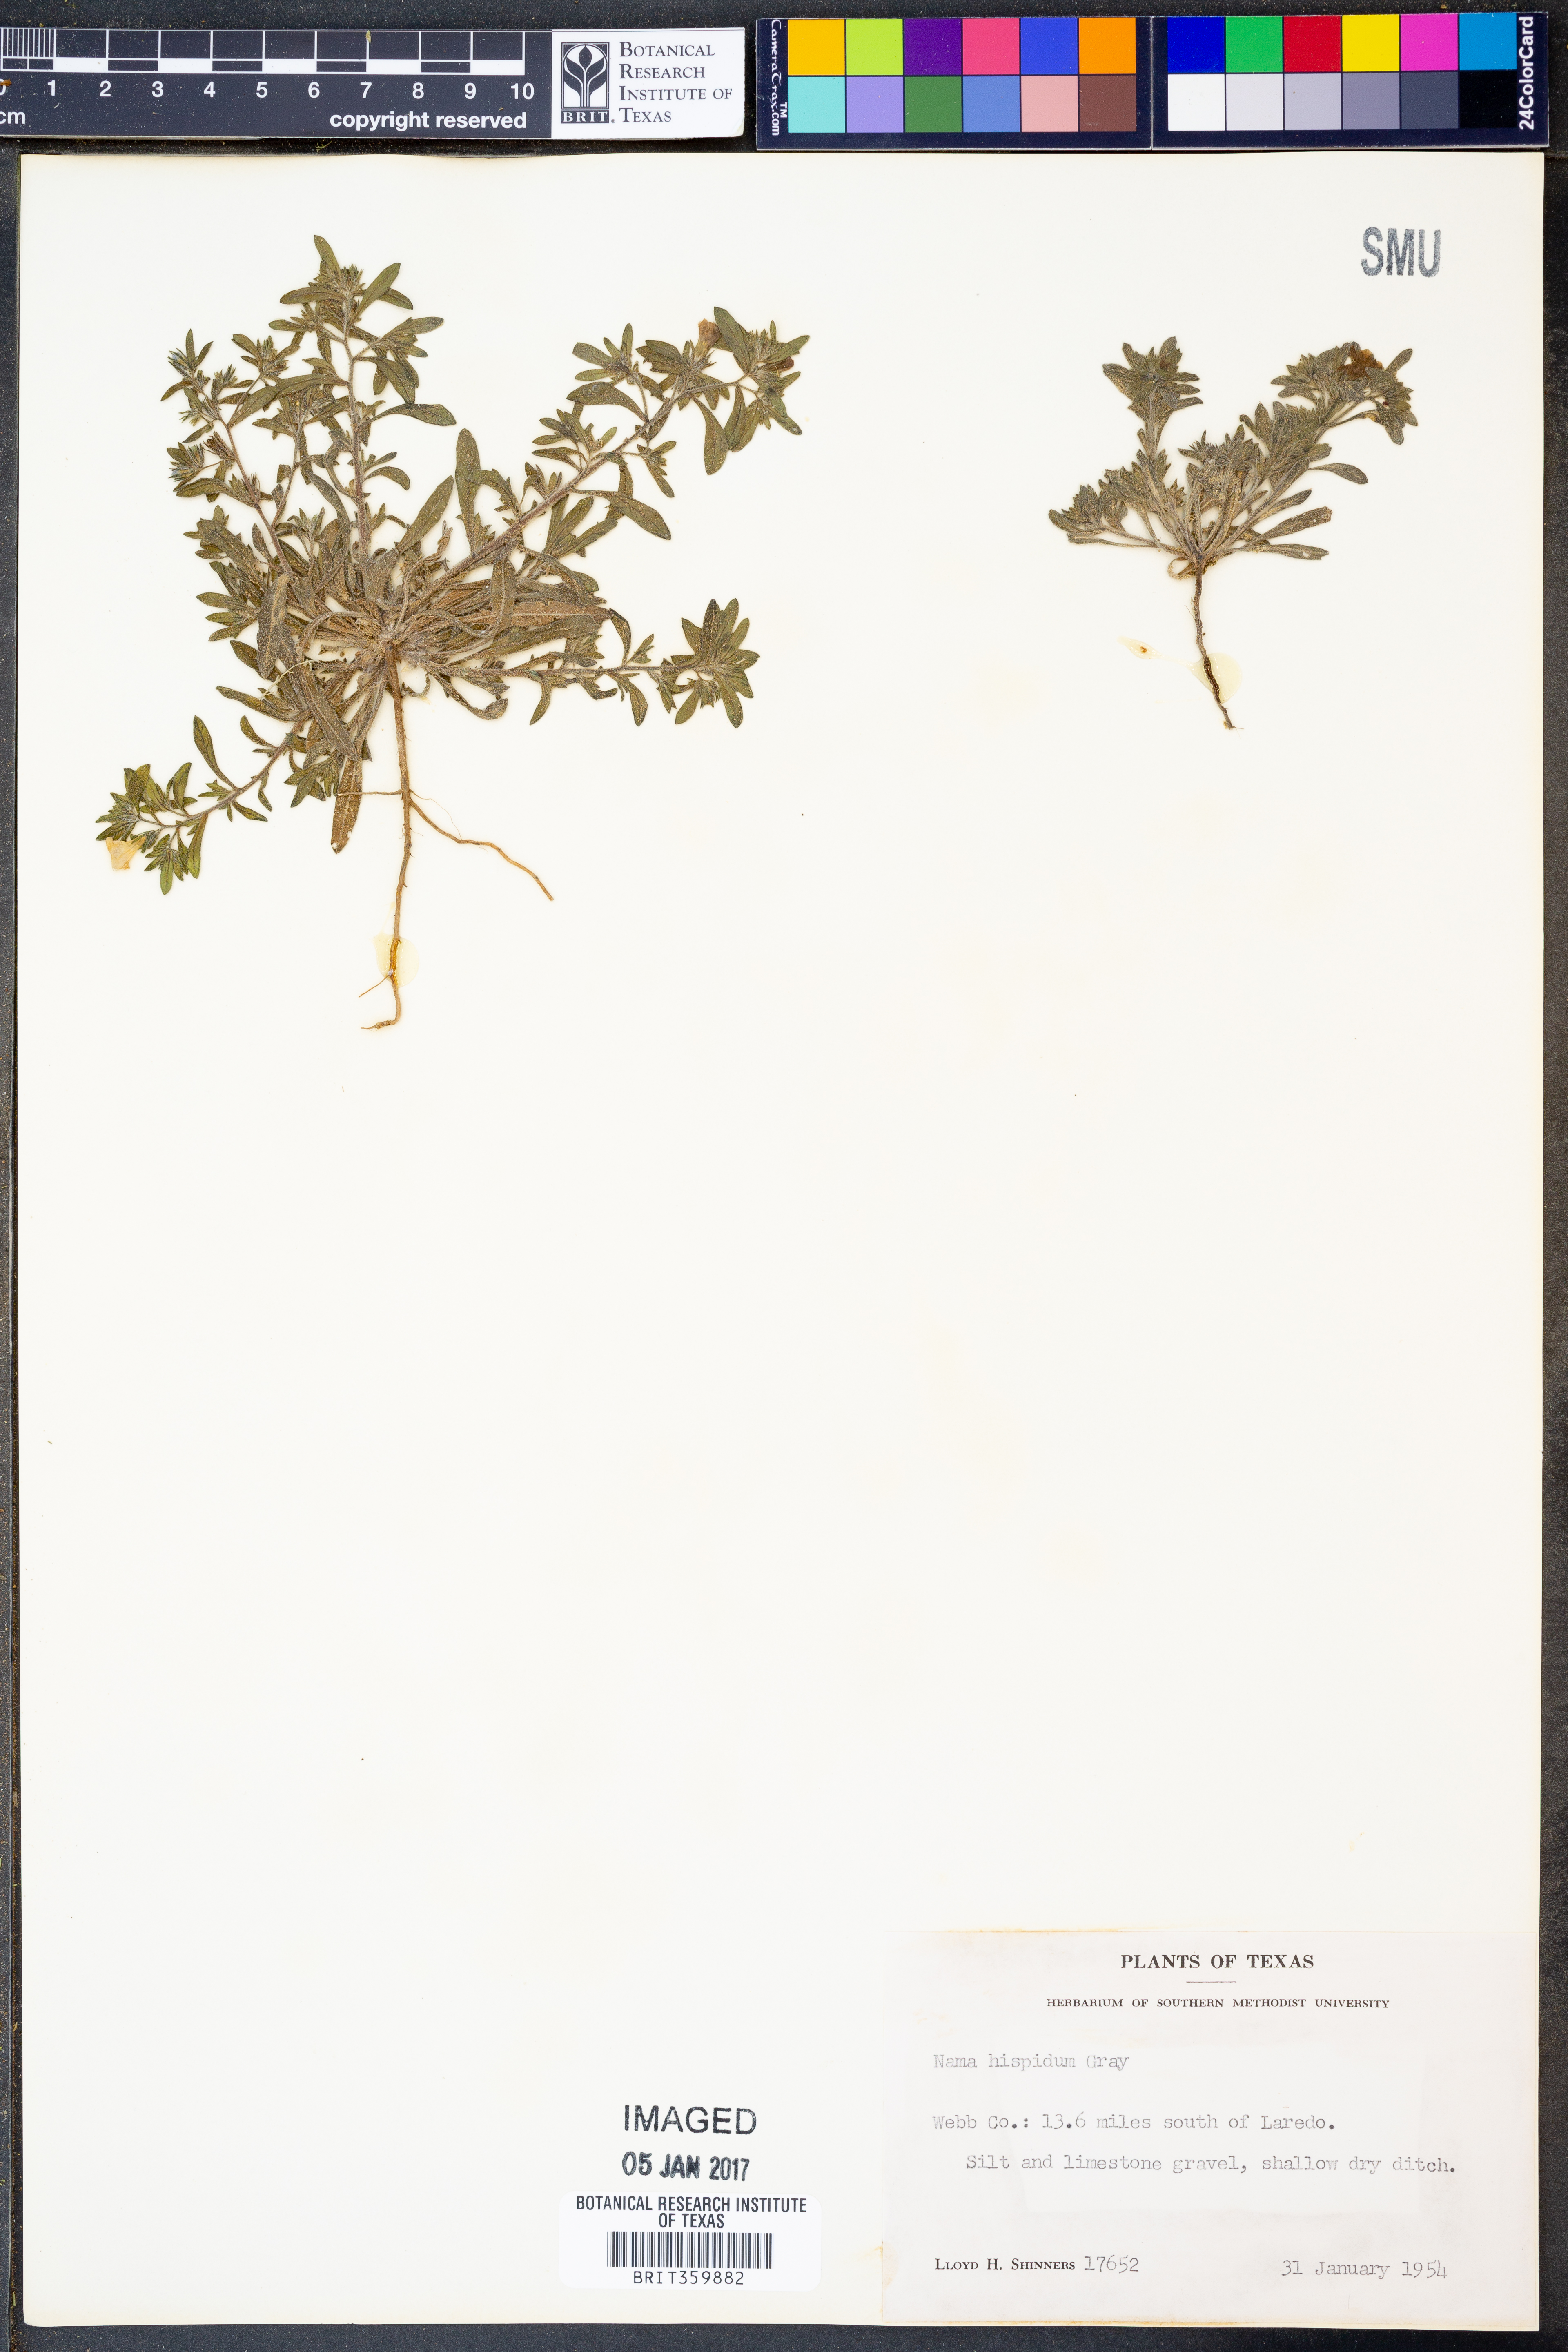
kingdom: Plantae
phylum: Tracheophyta
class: Magnoliopsida
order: Boraginales
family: Namaceae
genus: Nama
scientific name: Nama hispida
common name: Bristly nama
